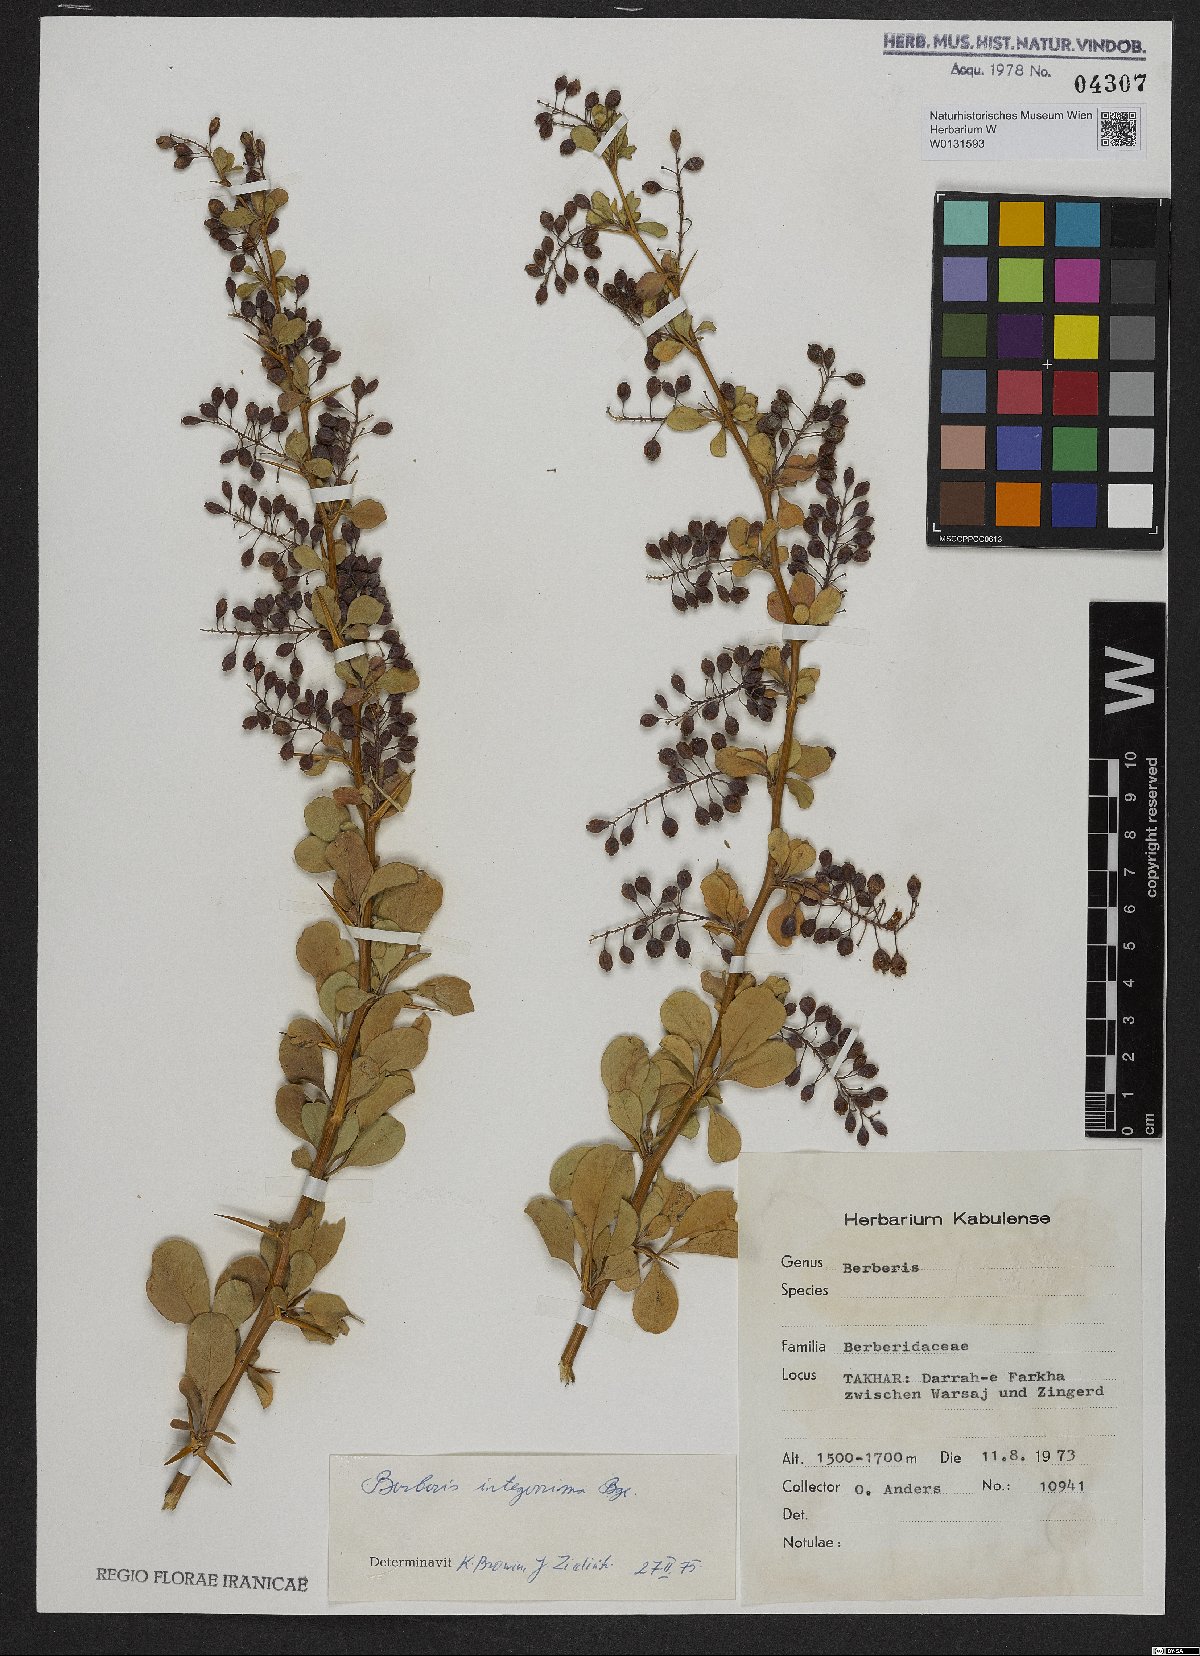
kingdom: Plantae
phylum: Tracheophyta
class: Magnoliopsida
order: Ranunculales
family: Berberidaceae
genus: Berberis
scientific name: Berberis integerrima
